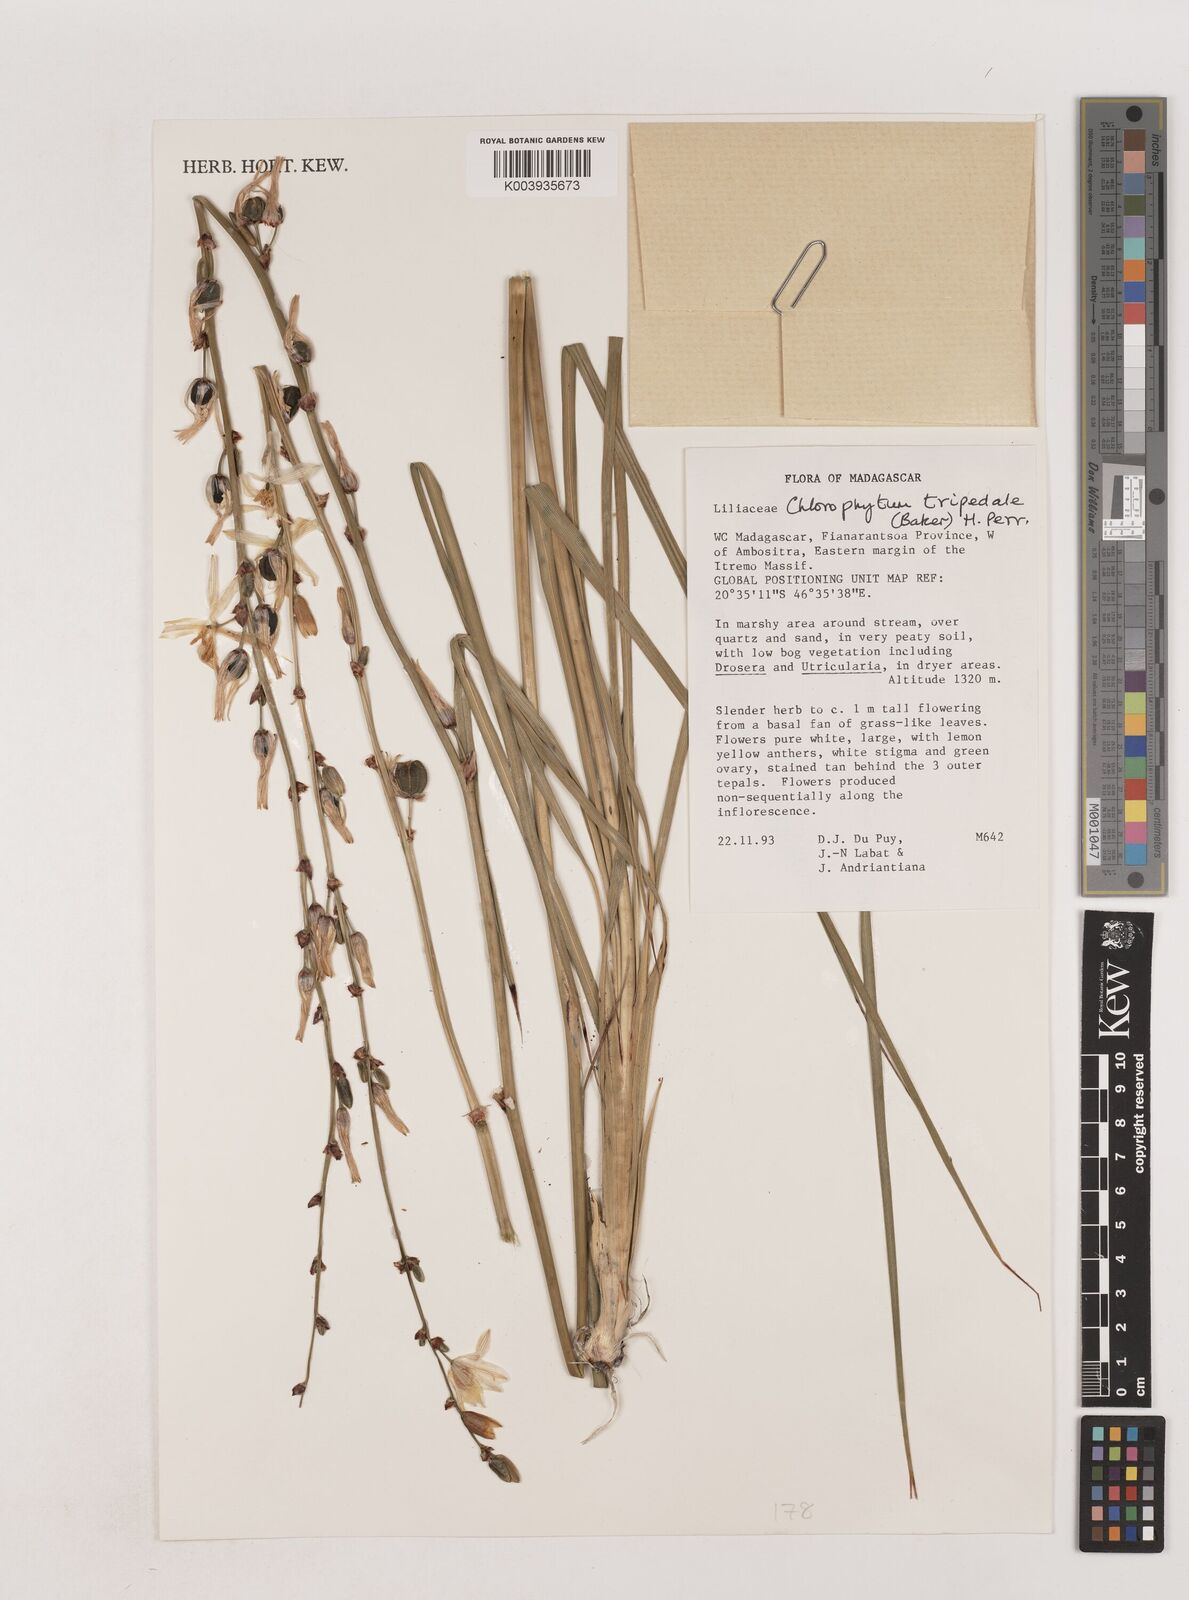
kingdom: Plantae
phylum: Tracheophyta
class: Liliopsida
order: Asparagales
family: Asparagaceae
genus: Chlorophytum
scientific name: Chlorophytum tripedale
